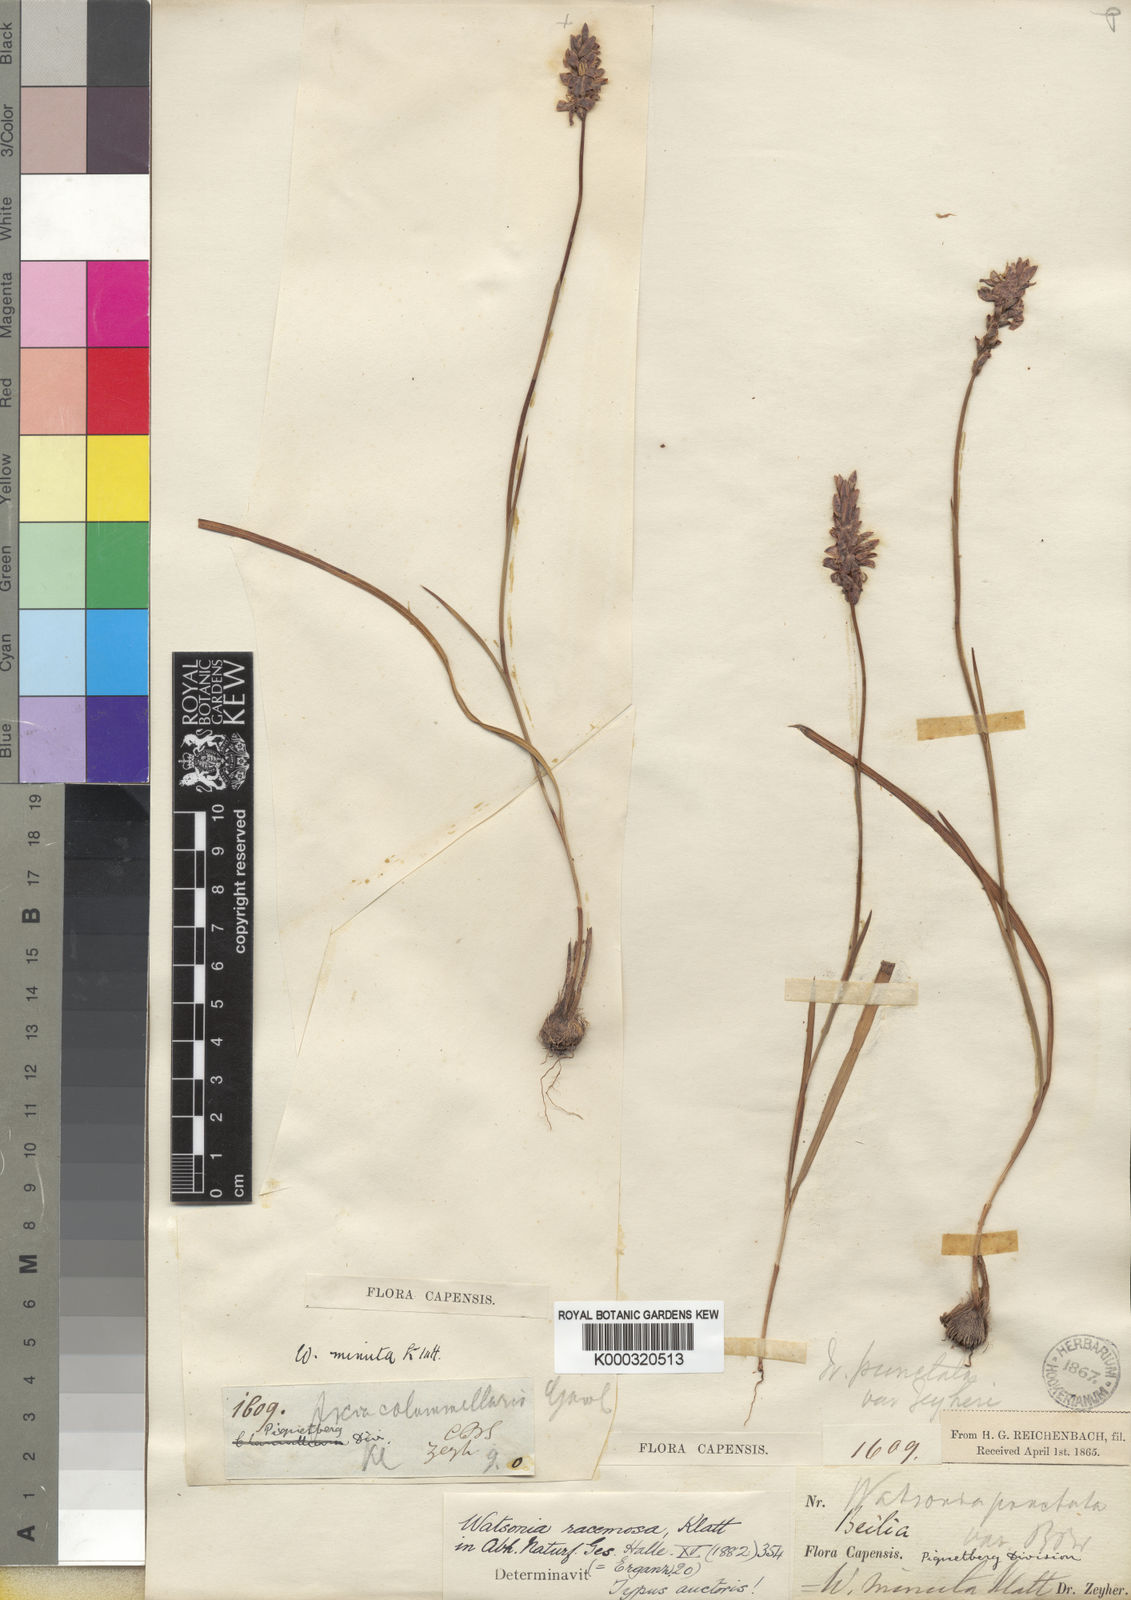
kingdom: Plantae
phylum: Tracheophyta
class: Liliopsida
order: Asparagales
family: Iridaceae
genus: Thereianthus
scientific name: Thereianthus racemosus
